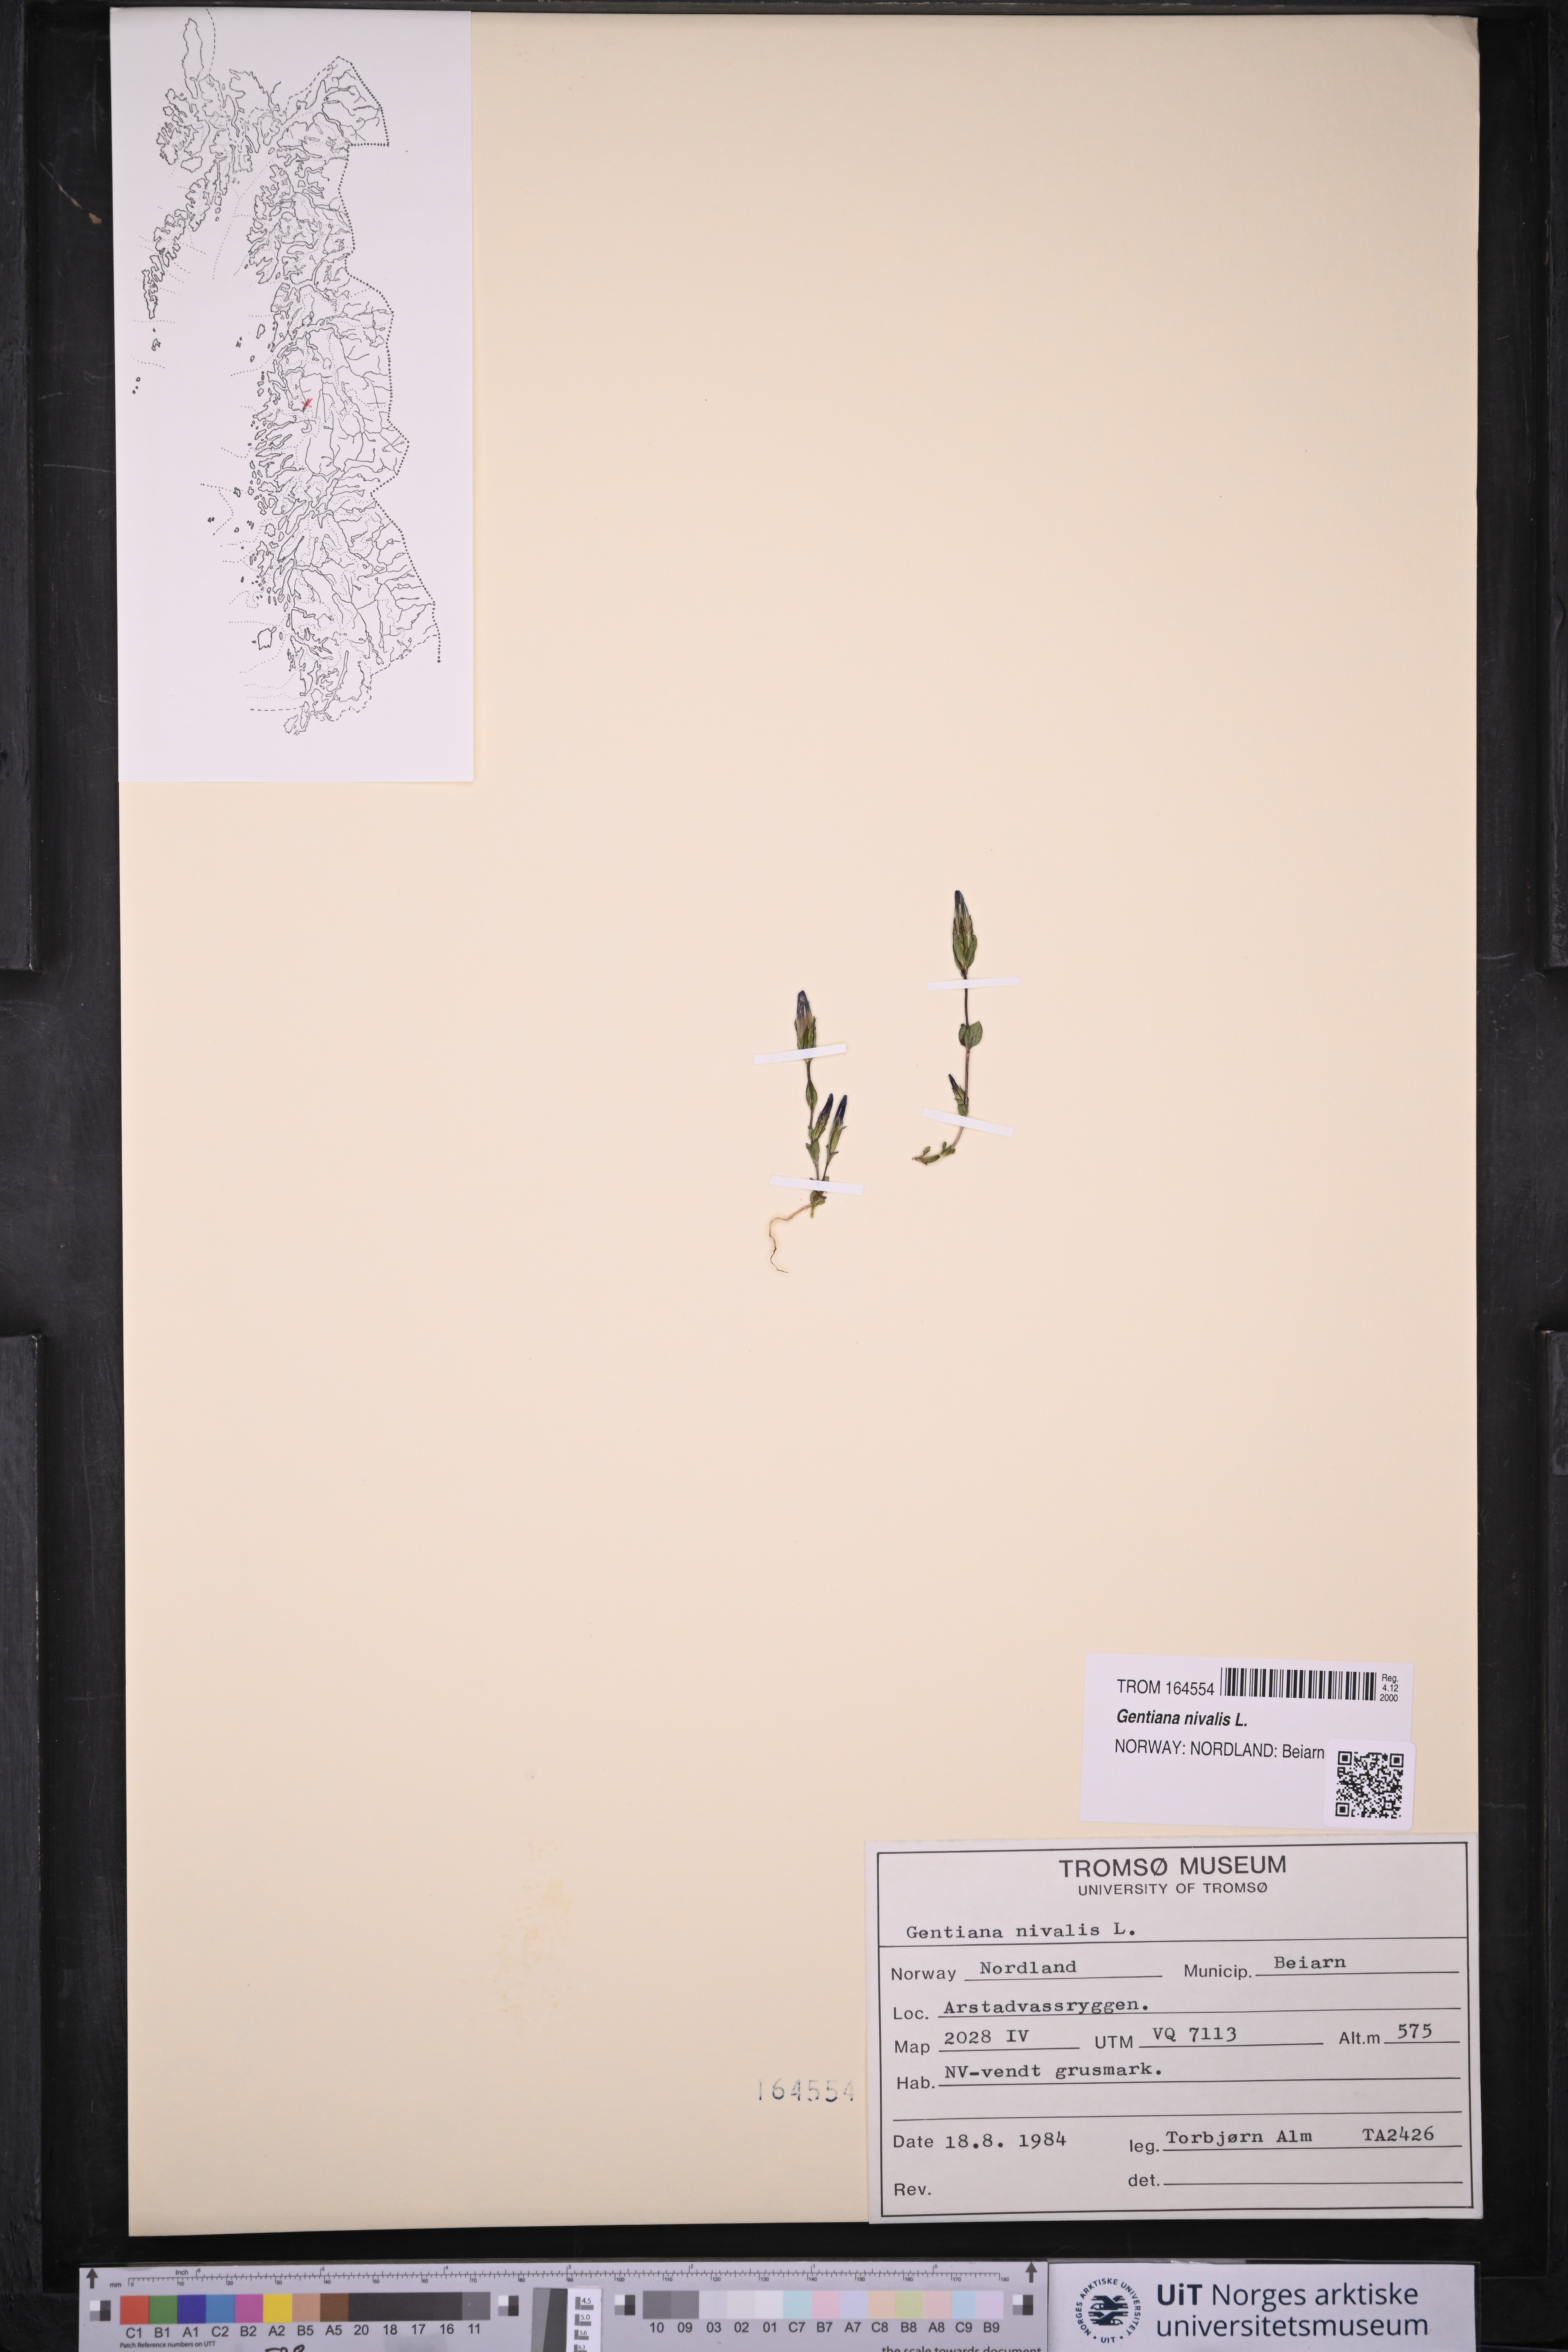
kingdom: Plantae
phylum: Tracheophyta
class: Magnoliopsida
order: Gentianales
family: Gentianaceae
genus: Gentiana
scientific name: Gentiana nivalis
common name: Alpine gentian
